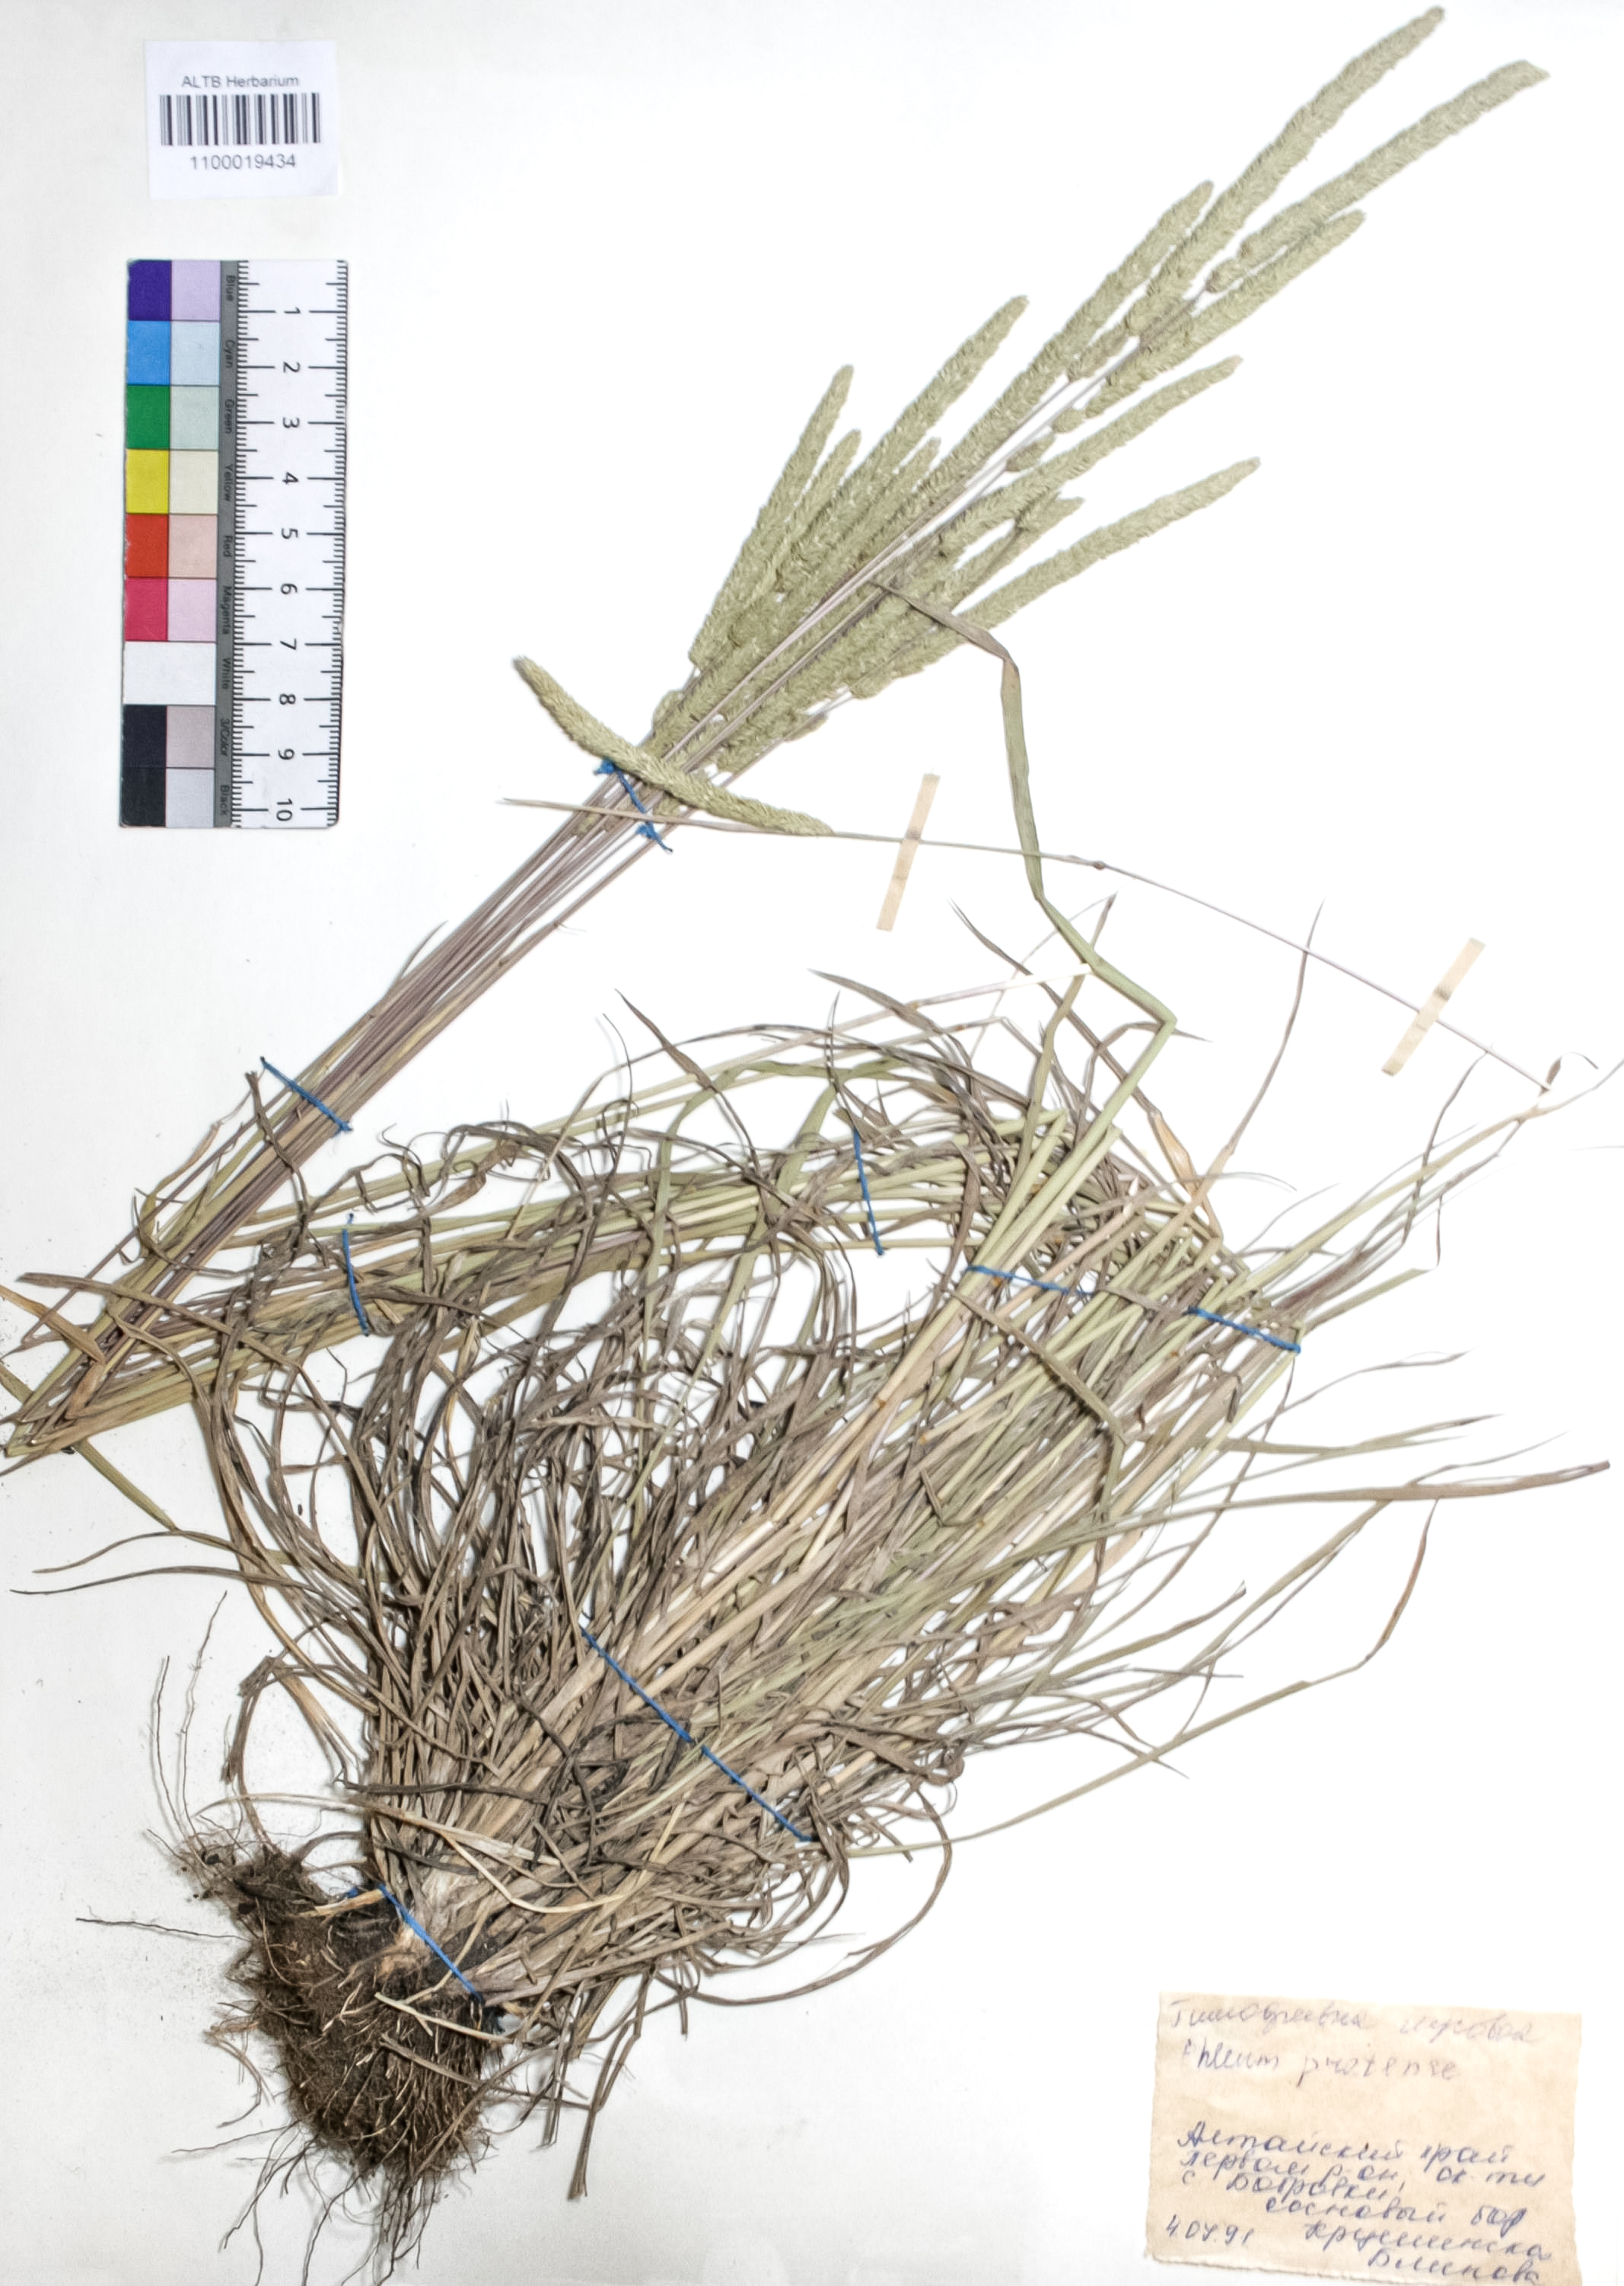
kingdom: Plantae
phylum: Tracheophyta
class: Liliopsida
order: Poales
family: Poaceae
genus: Phleum
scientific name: Phleum pratense
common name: Timothy grass
